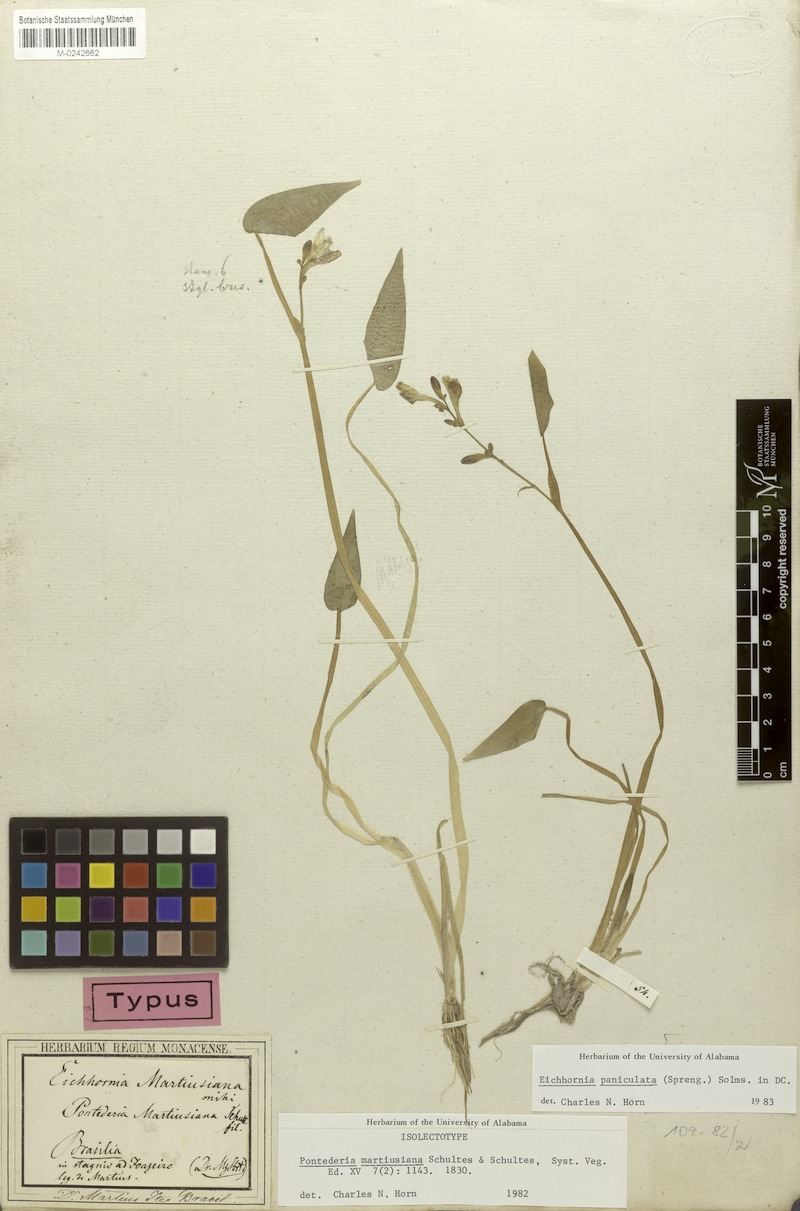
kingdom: Plantae
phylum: Tracheophyta
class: Liliopsida
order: Commelinales
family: Pontederiaceae
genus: Pontederia
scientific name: Pontederia paniculata
